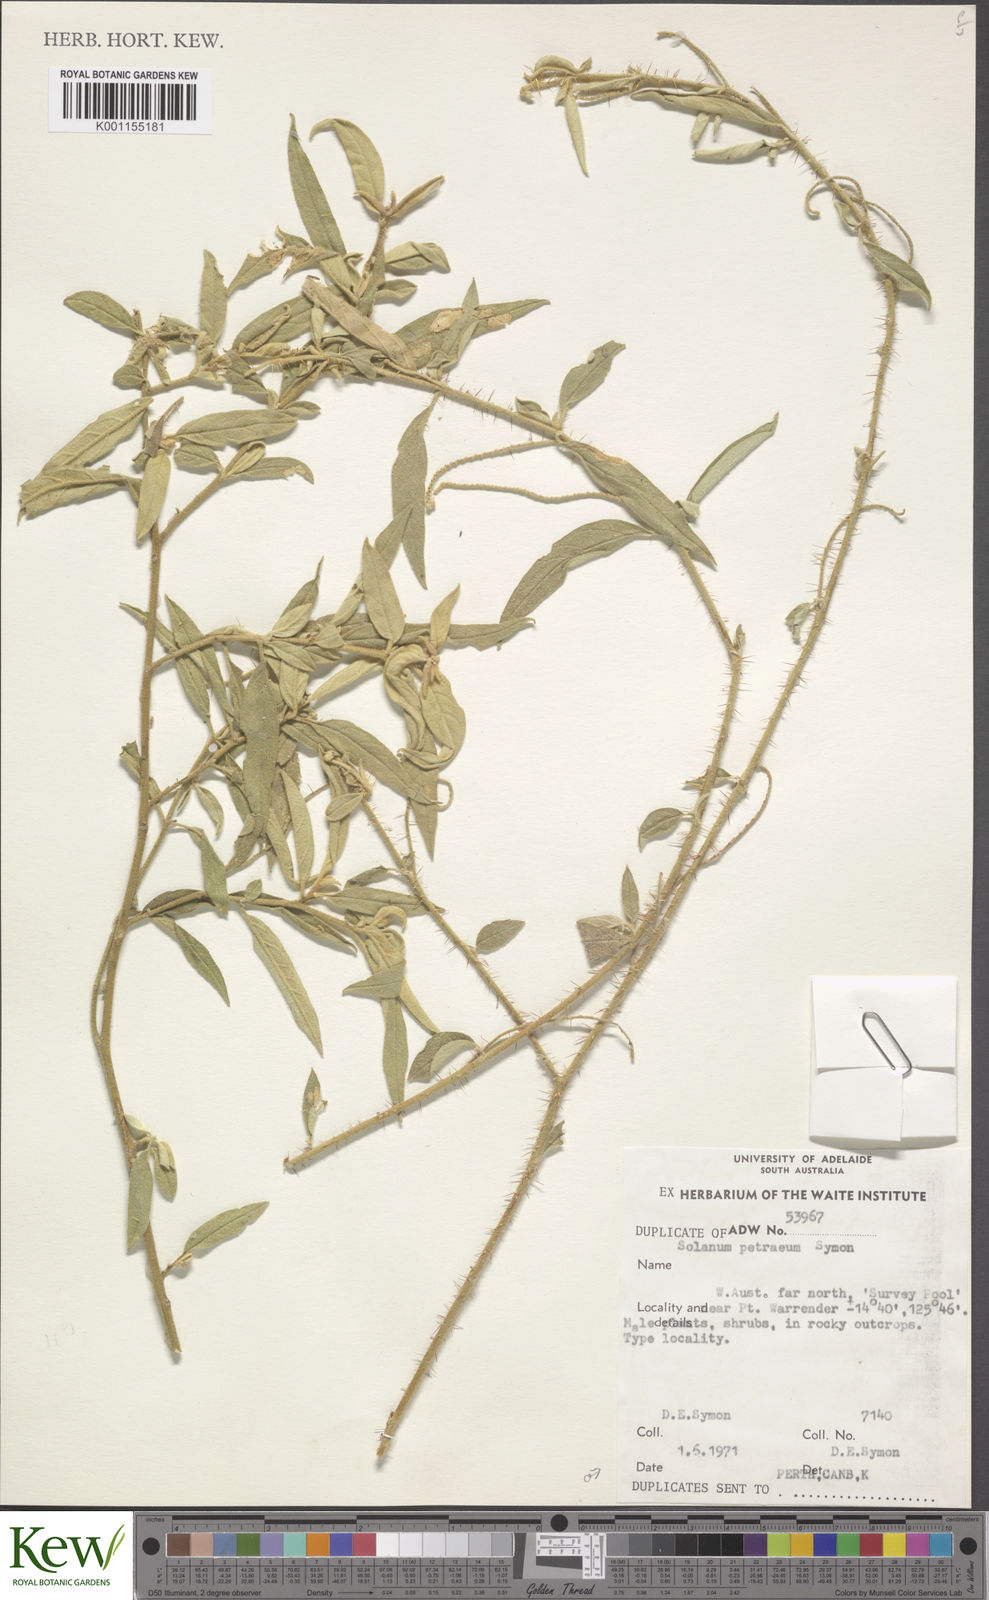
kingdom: Plantae
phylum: Tracheophyta
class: Magnoliopsida
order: Solanales
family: Solanaceae
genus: Solanum
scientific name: Solanum petraeum
